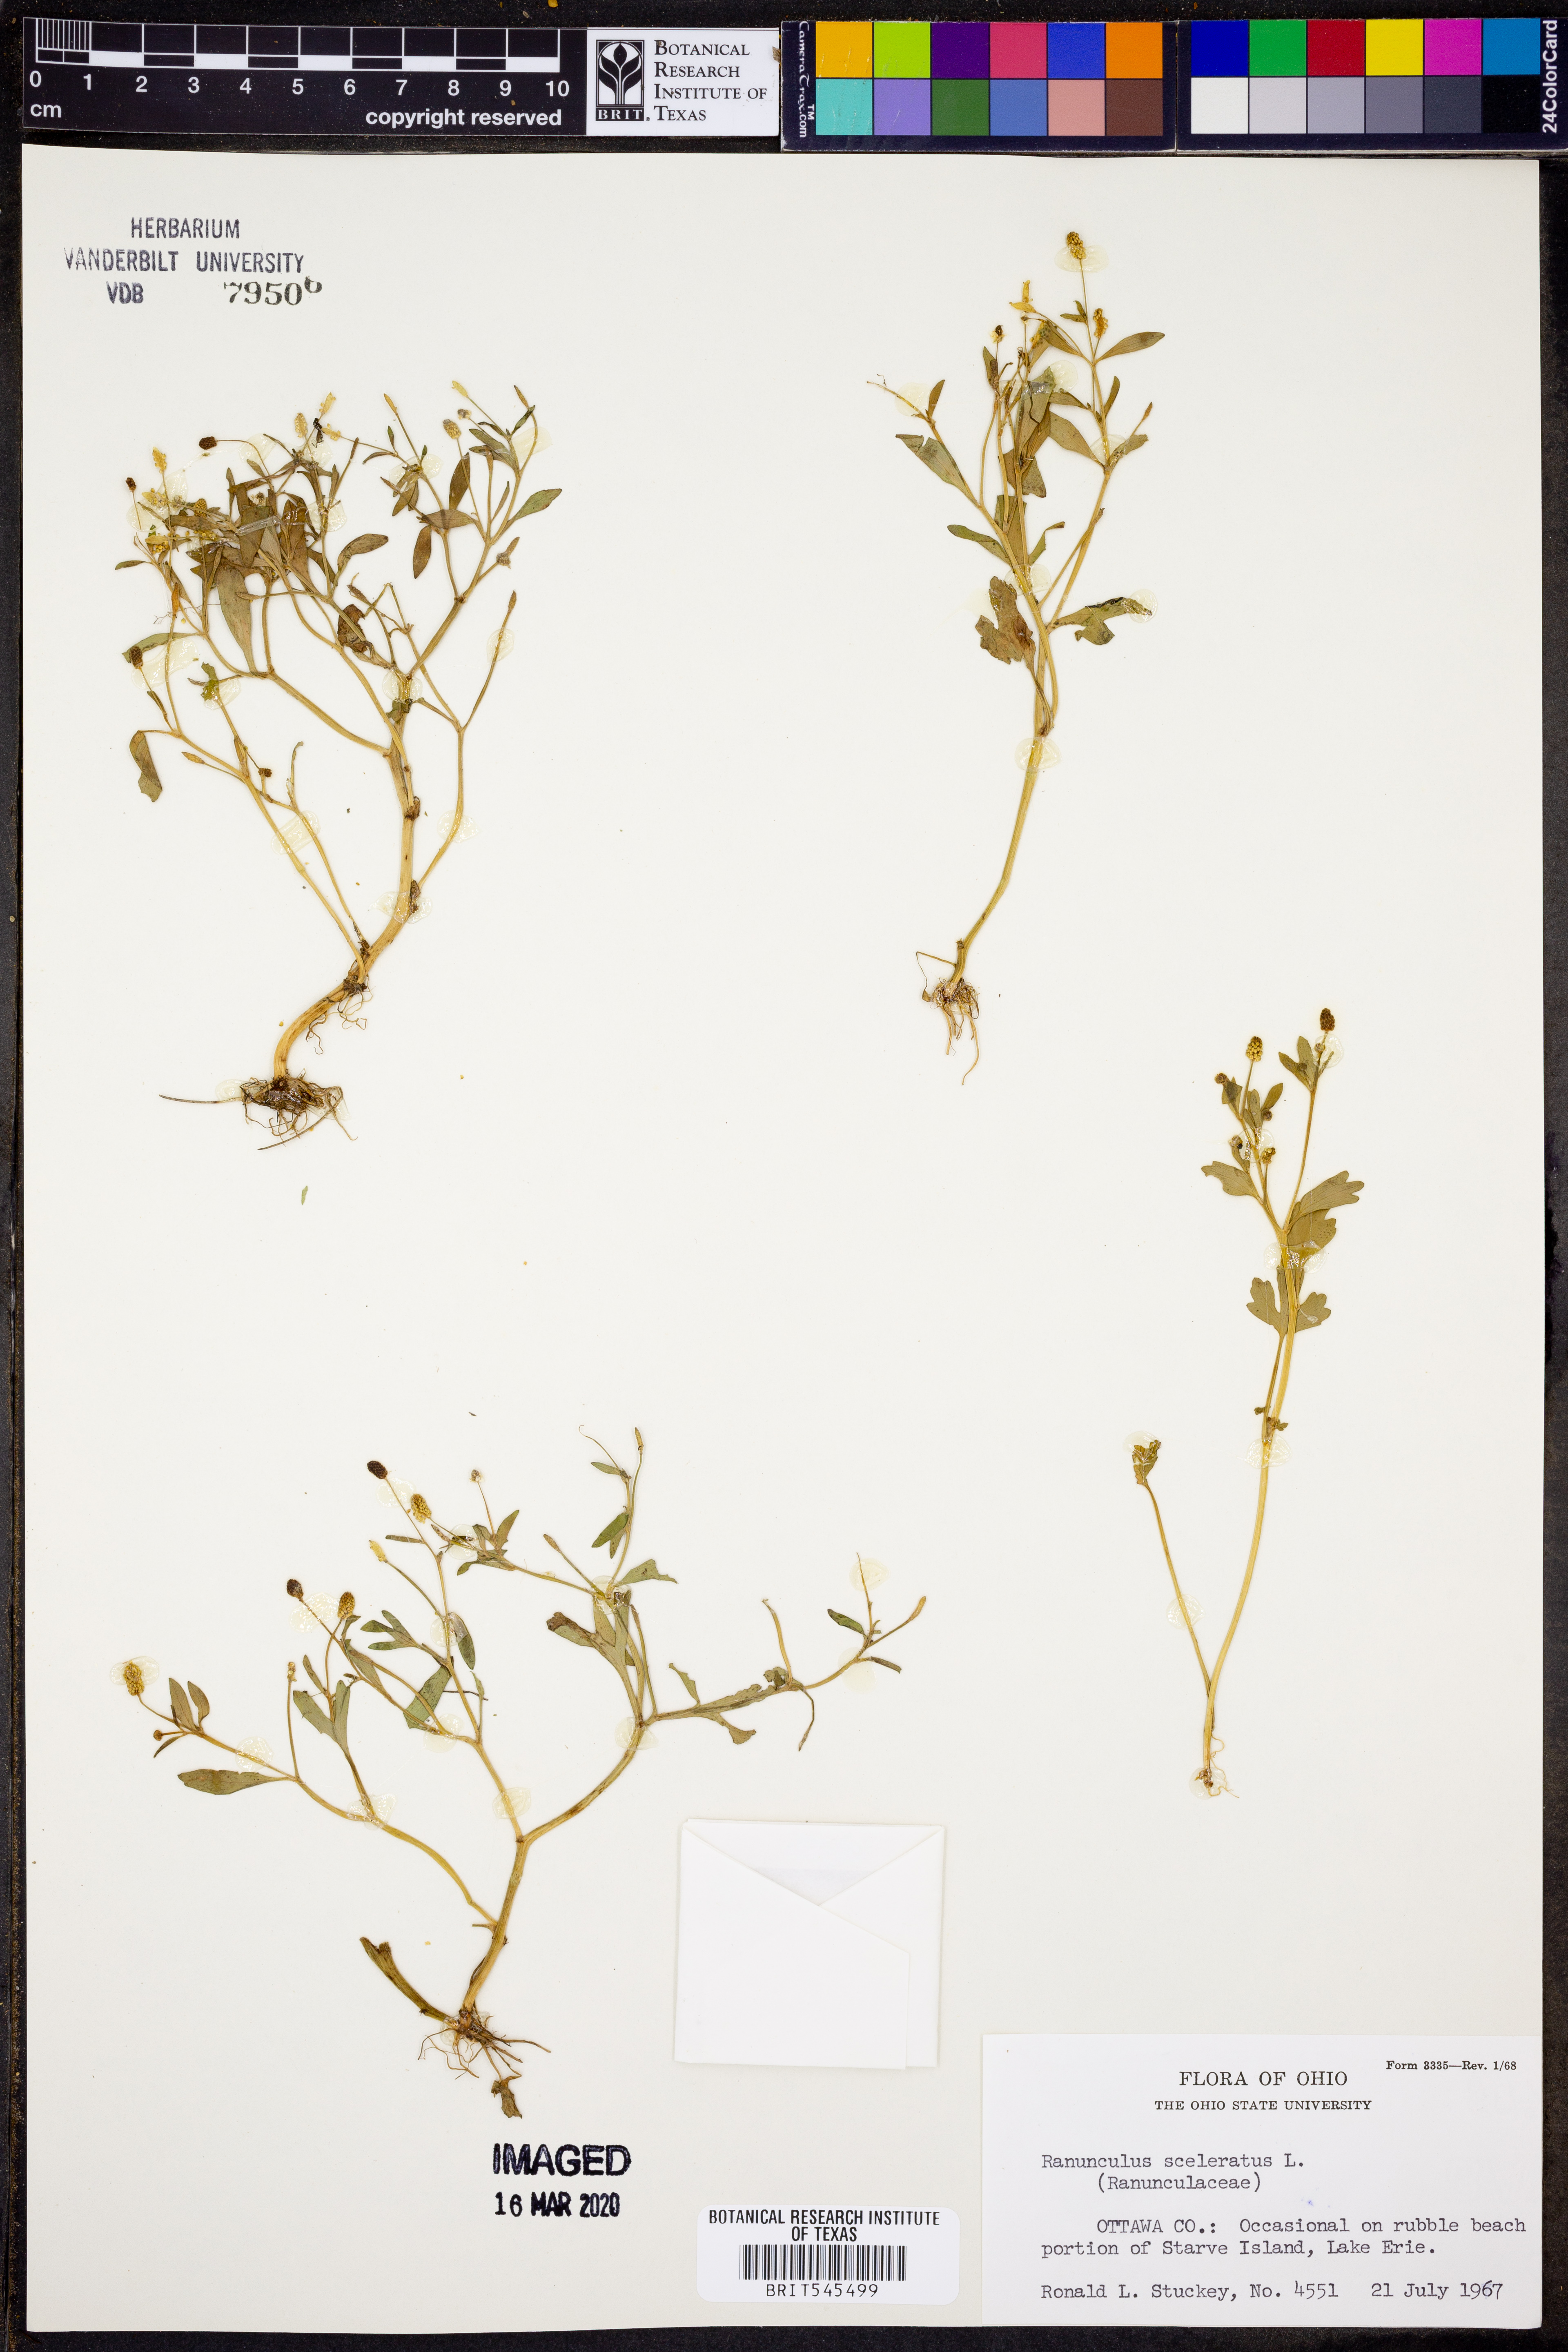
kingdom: Plantae
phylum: Tracheophyta
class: Magnoliopsida
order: Ranunculales
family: Ranunculaceae
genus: Ranunculus
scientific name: Ranunculus sceleratus
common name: Celery-leaved buttercup
